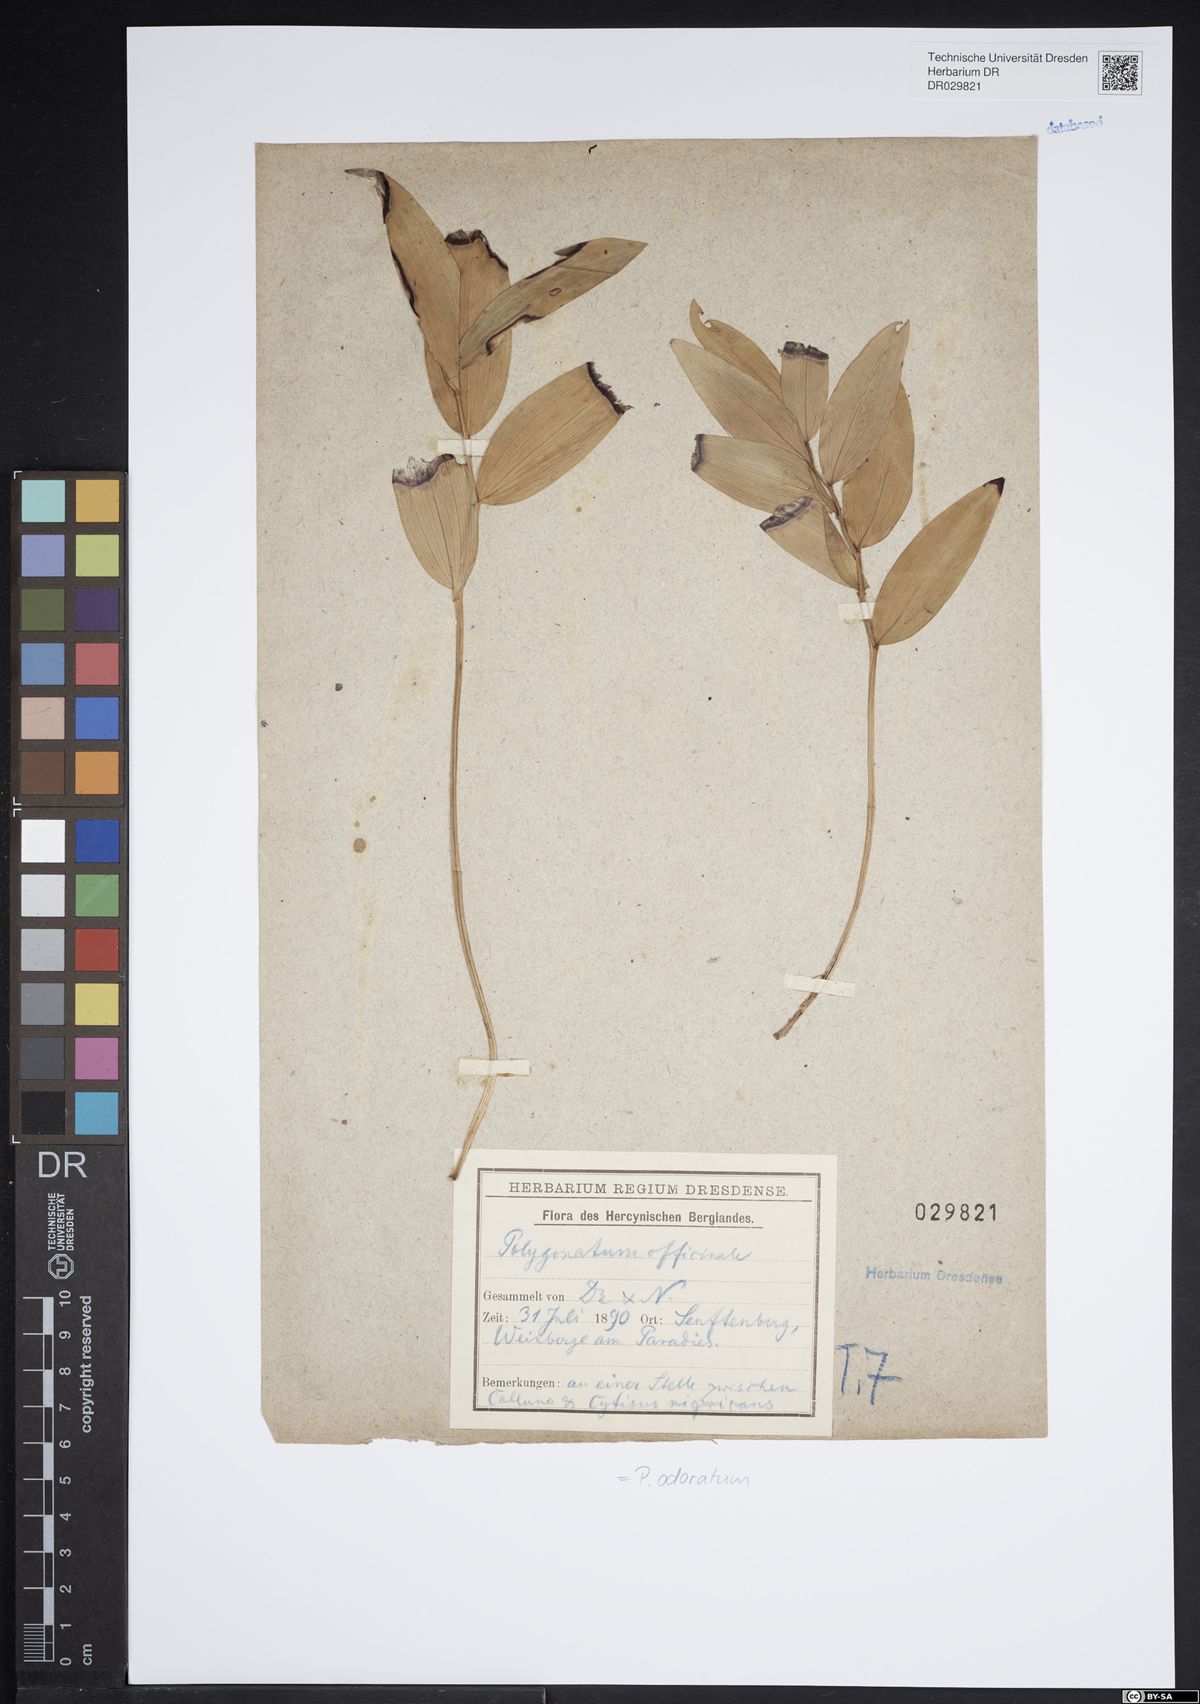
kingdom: Plantae
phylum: Tracheophyta
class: Liliopsida
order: Asparagales
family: Asparagaceae
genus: Polygonatum
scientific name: Polygonatum odoratum
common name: Angular solomon's-seal
